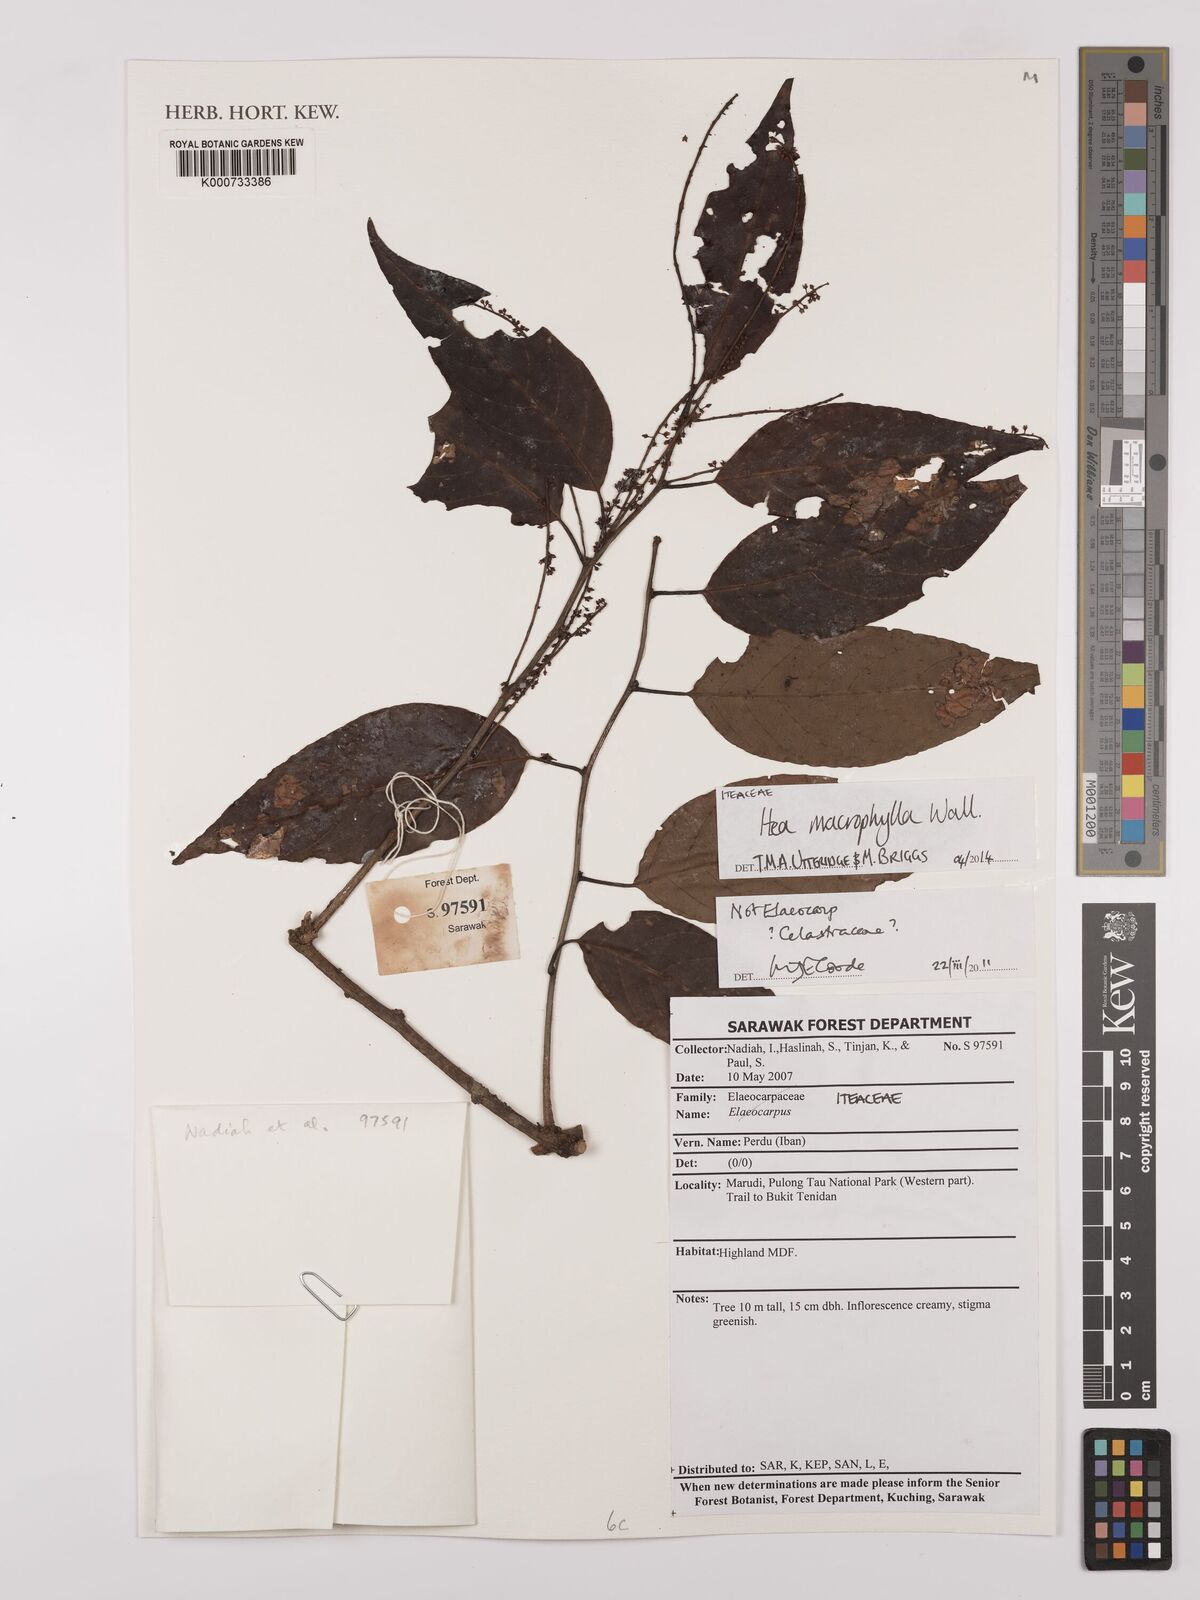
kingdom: Plantae
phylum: Tracheophyta
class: Magnoliopsida
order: Saxifragales
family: Iteaceae
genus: Itea
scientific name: Itea macrophylla
